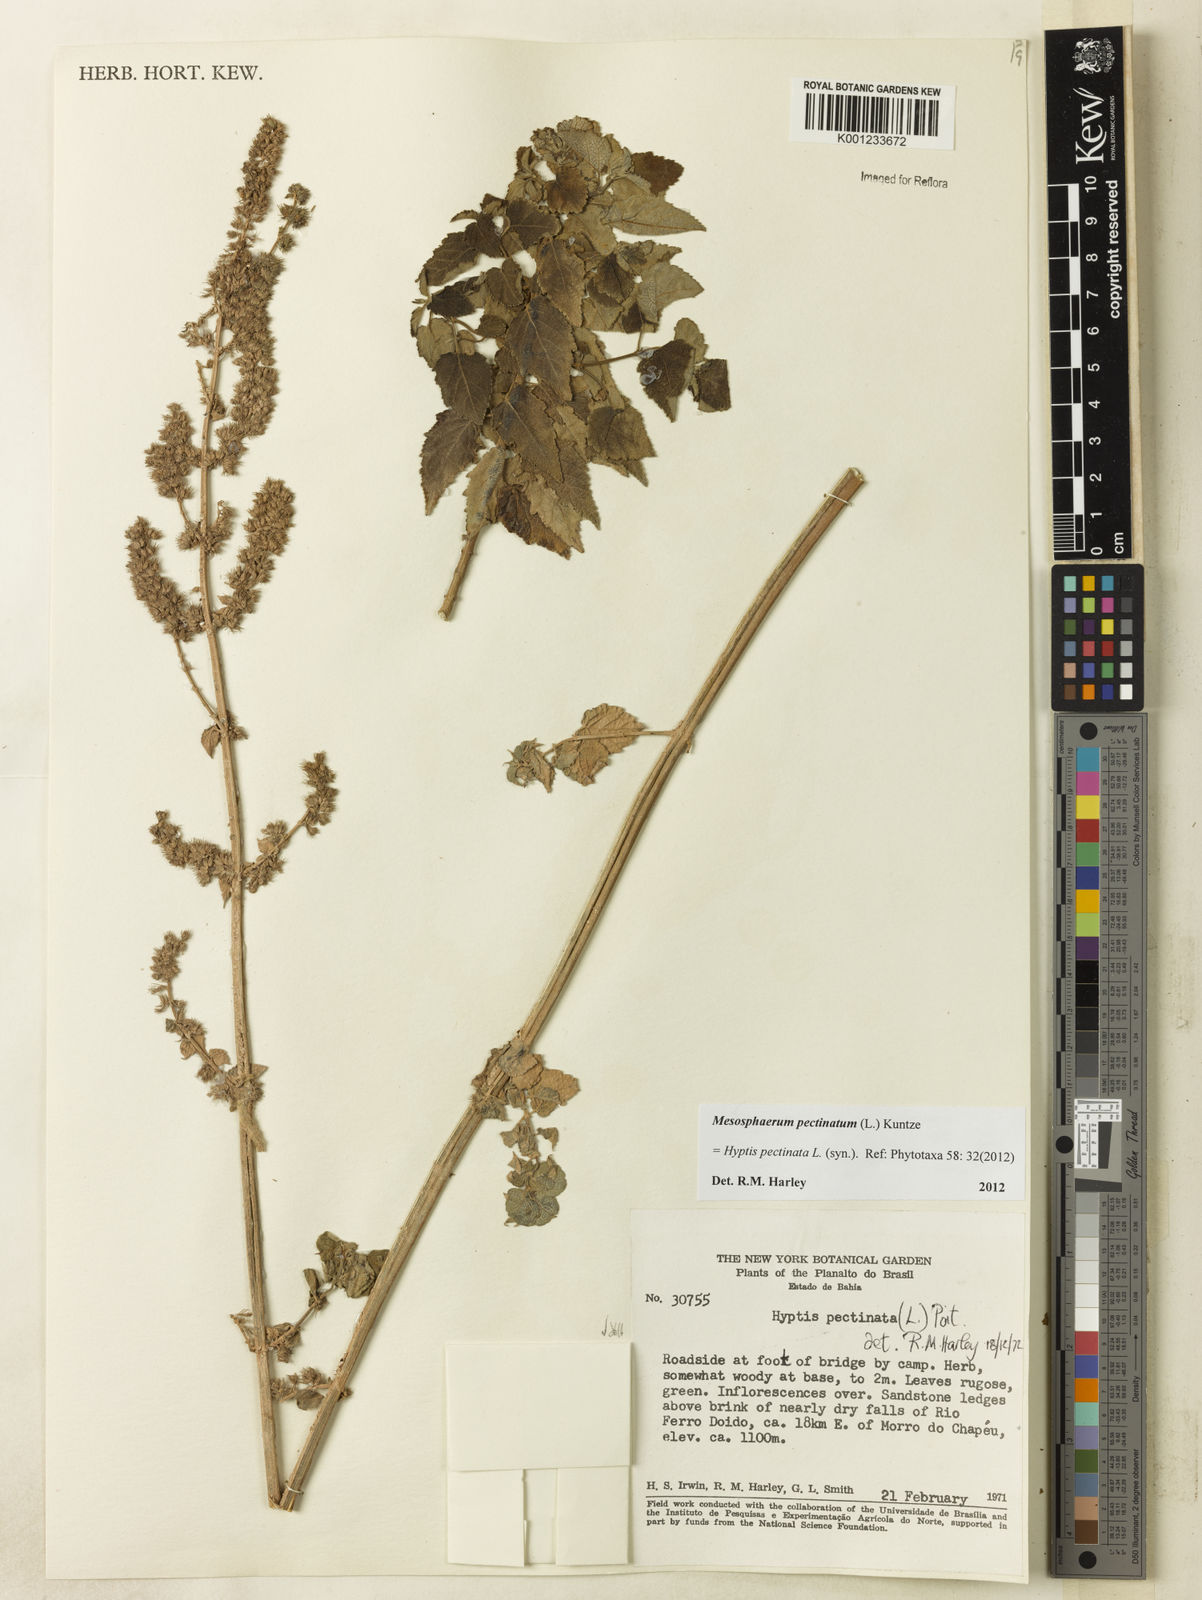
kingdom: Plantae
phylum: Tracheophyta
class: Magnoliopsida
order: Lamiales
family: Lamiaceae
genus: Mesosphaerum
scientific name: Mesosphaerum pectinatum
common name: Comb hyptis
